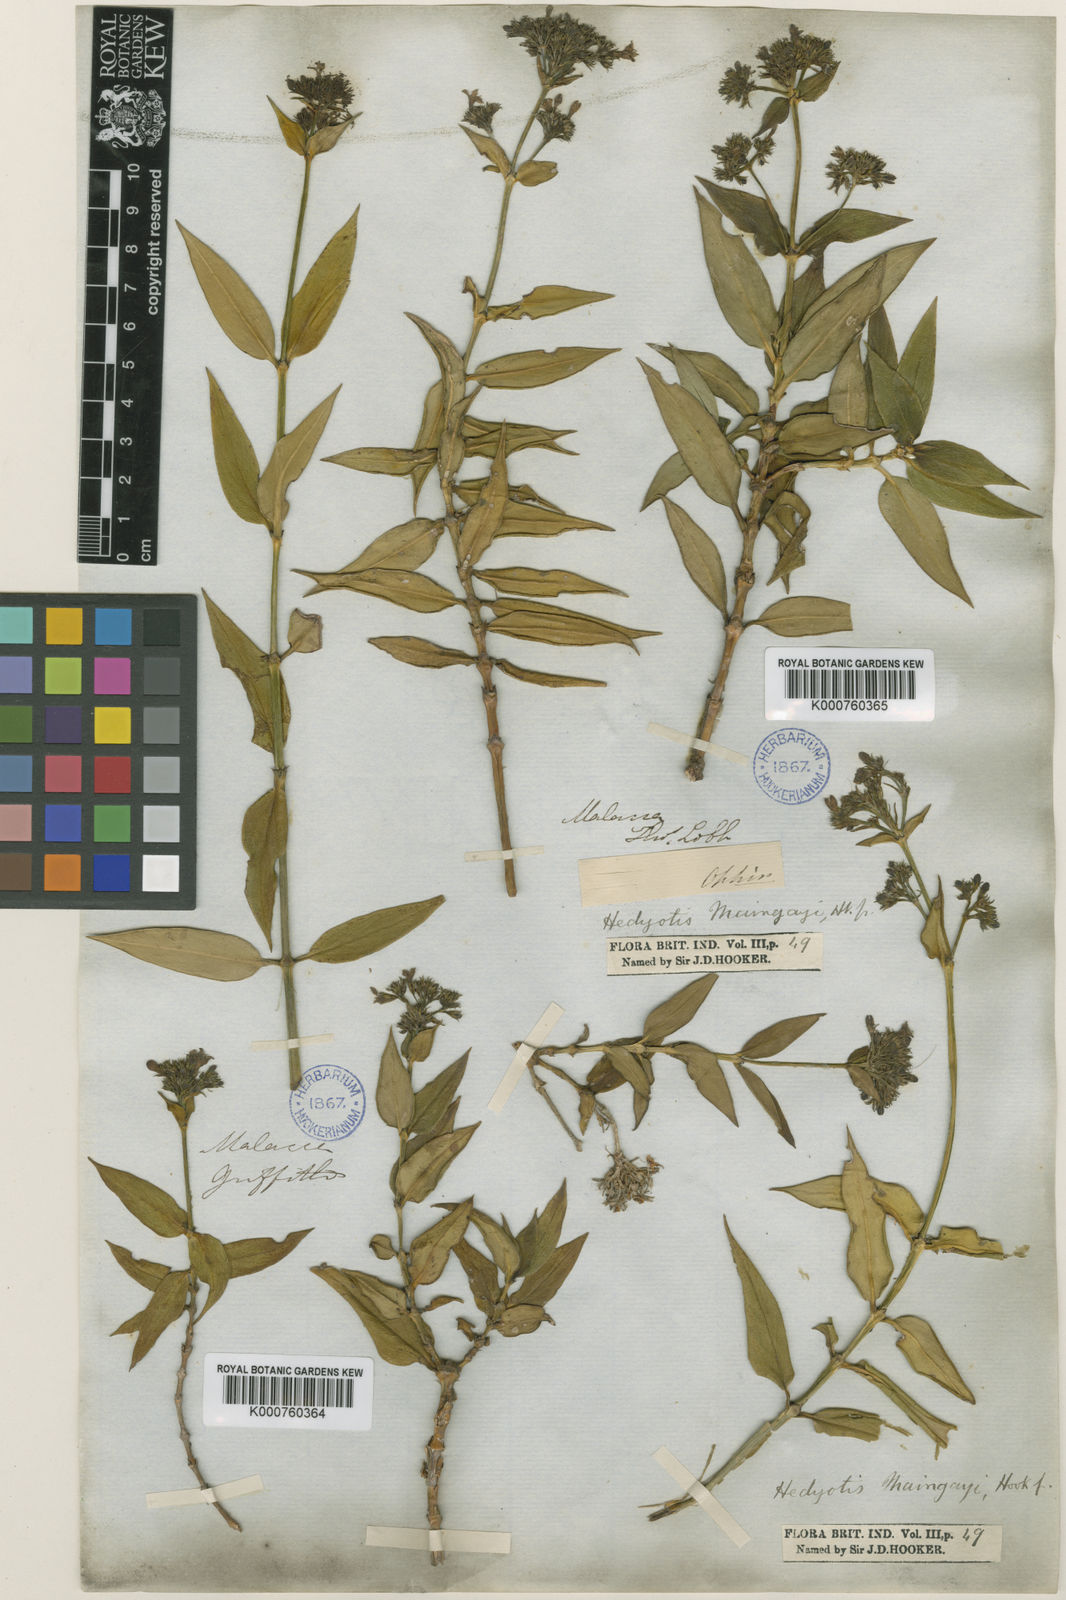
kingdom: Plantae
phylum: Tracheophyta
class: Magnoliopsida
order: Gentianales
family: Rubiaceae
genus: Hedyotis
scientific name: Hedyotis maingayi
